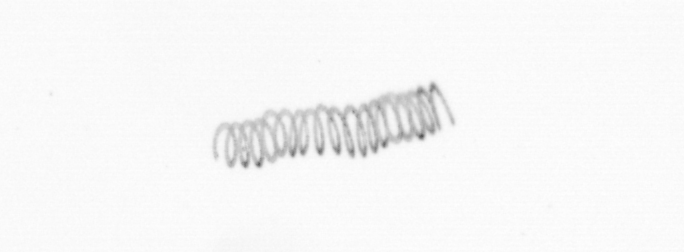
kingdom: Chromista
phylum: Ochrophyta
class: Bacillariophyceae
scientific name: Bacillariophyceae
